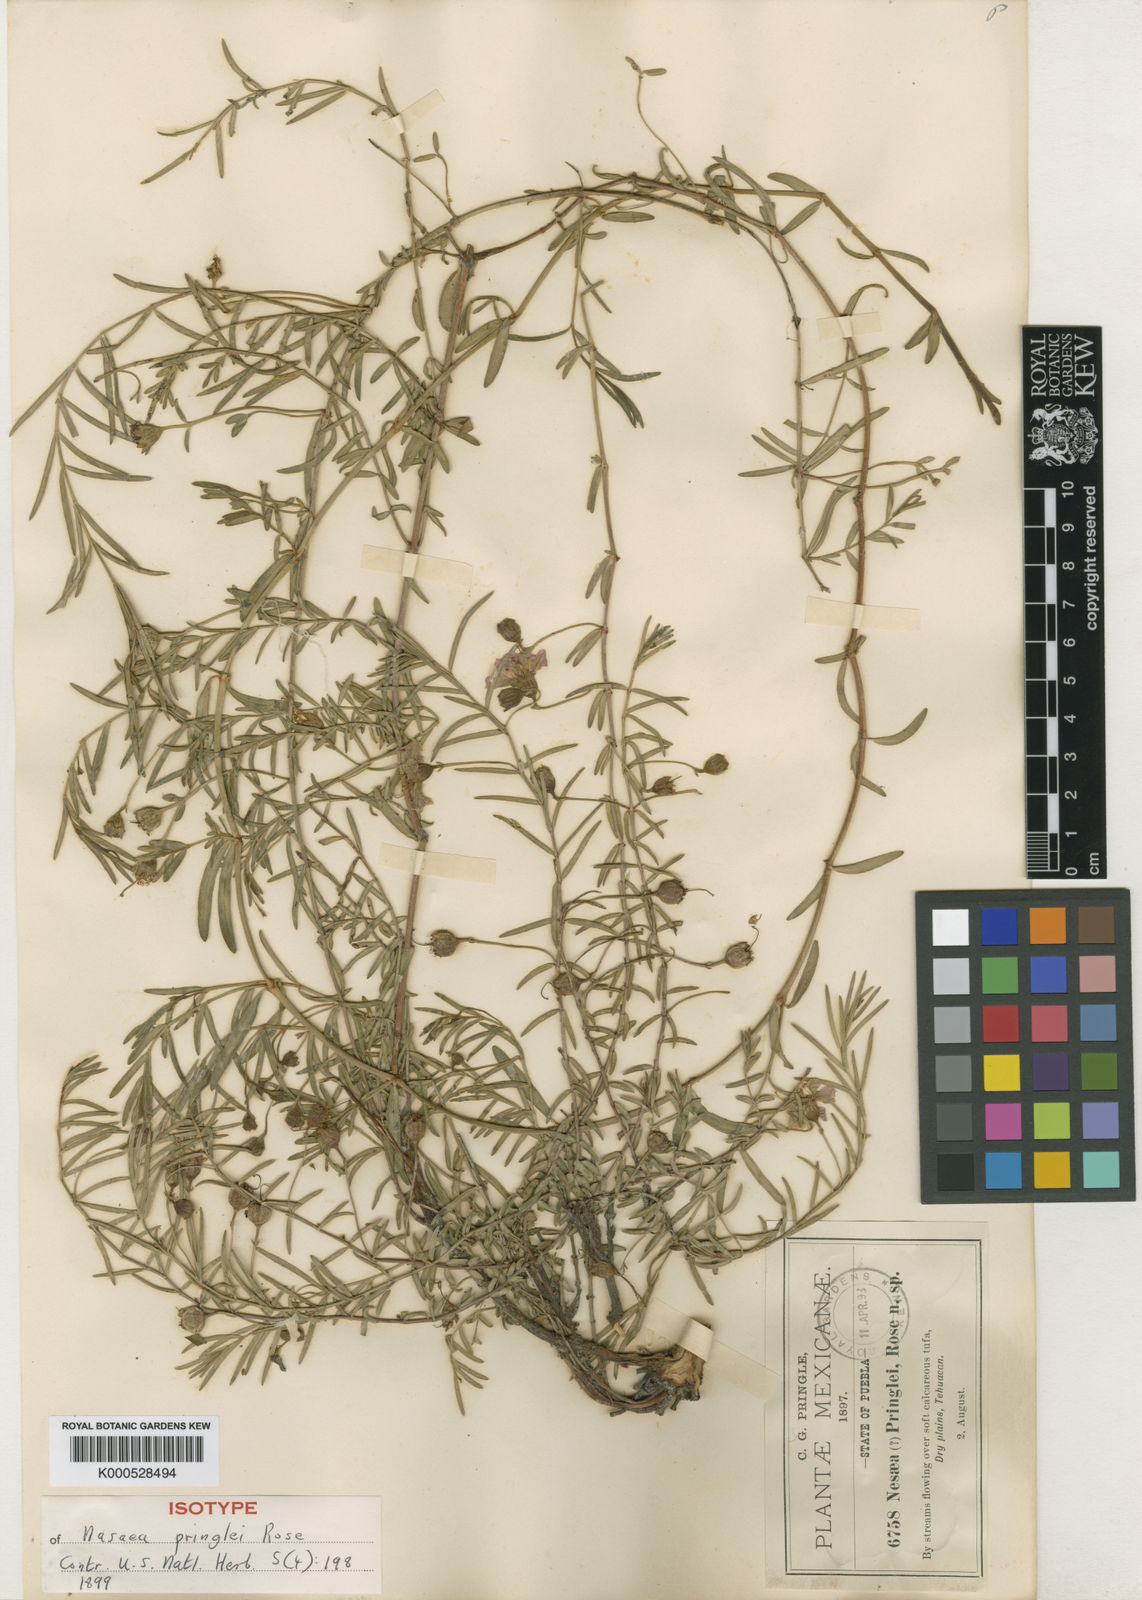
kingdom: Plantae
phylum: Tracheophyta
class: Magnoliopsida
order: Myrtales
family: Lythraceae
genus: Ammannia
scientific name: Ammannia pringlei
